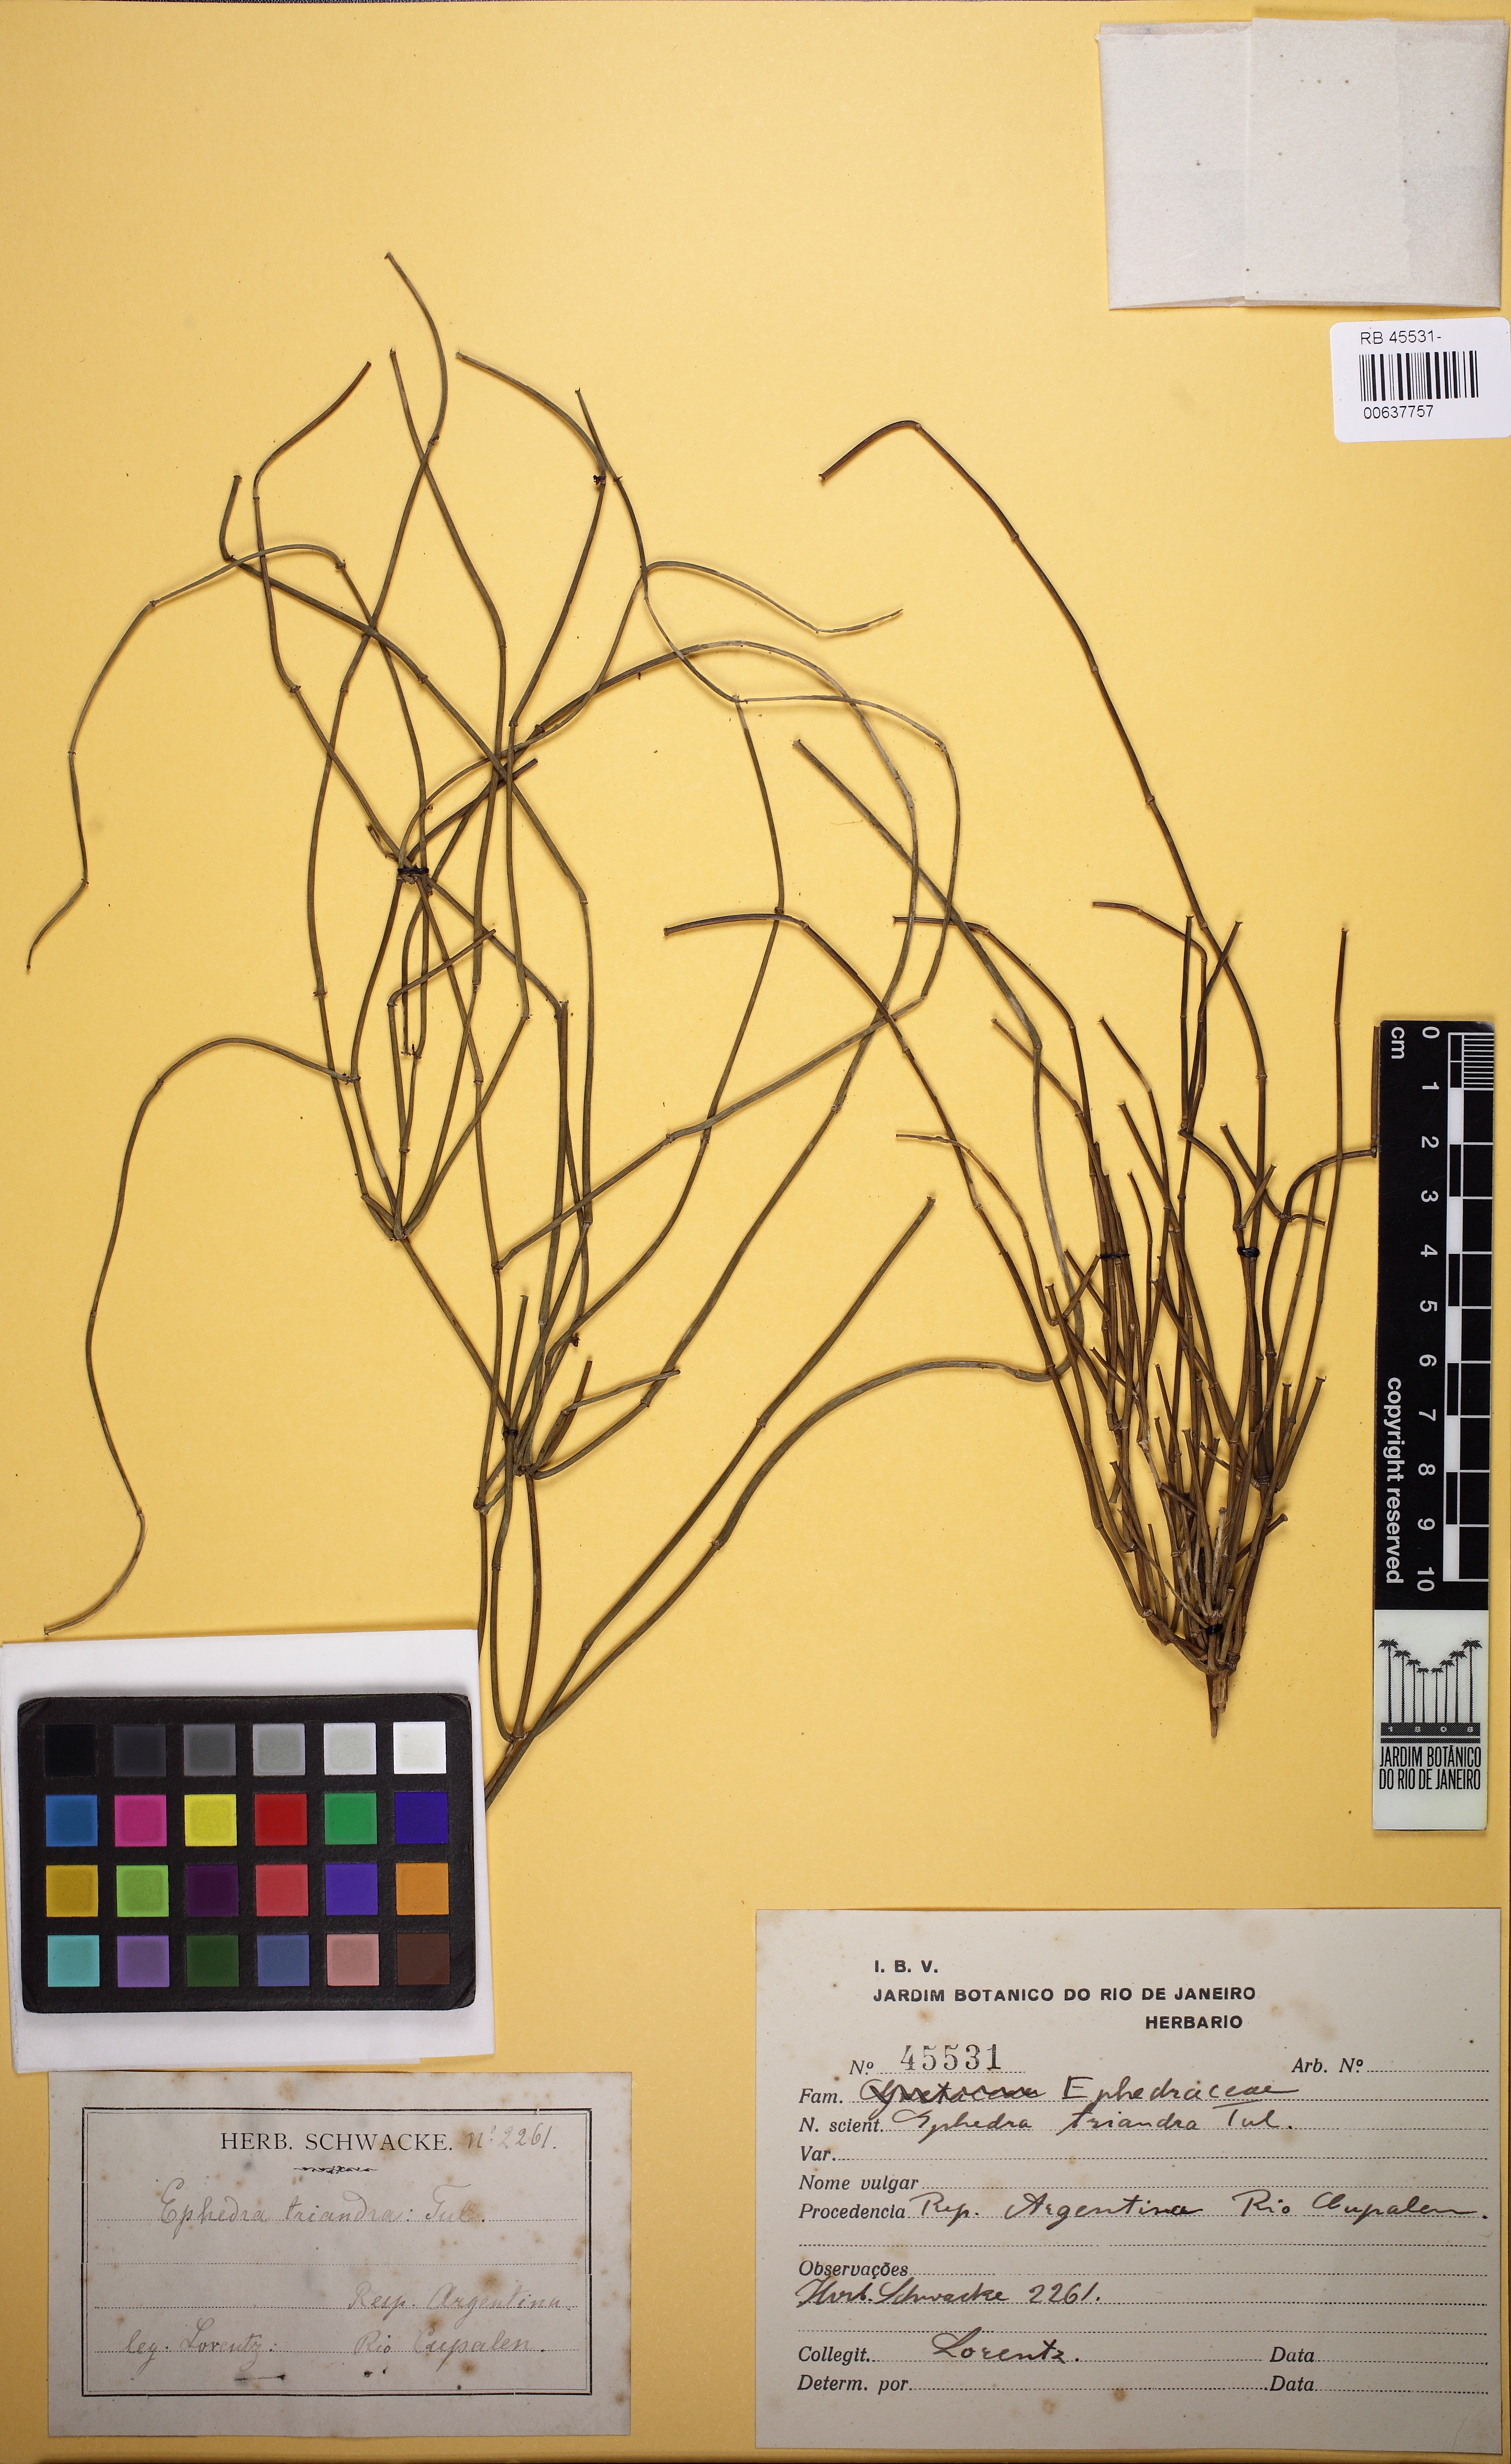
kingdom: Plantae
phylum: Tracheophyta
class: Gnetopsida
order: Ephedrales
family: Ephedraceae
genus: Ephedra
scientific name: Ephedra triandra
